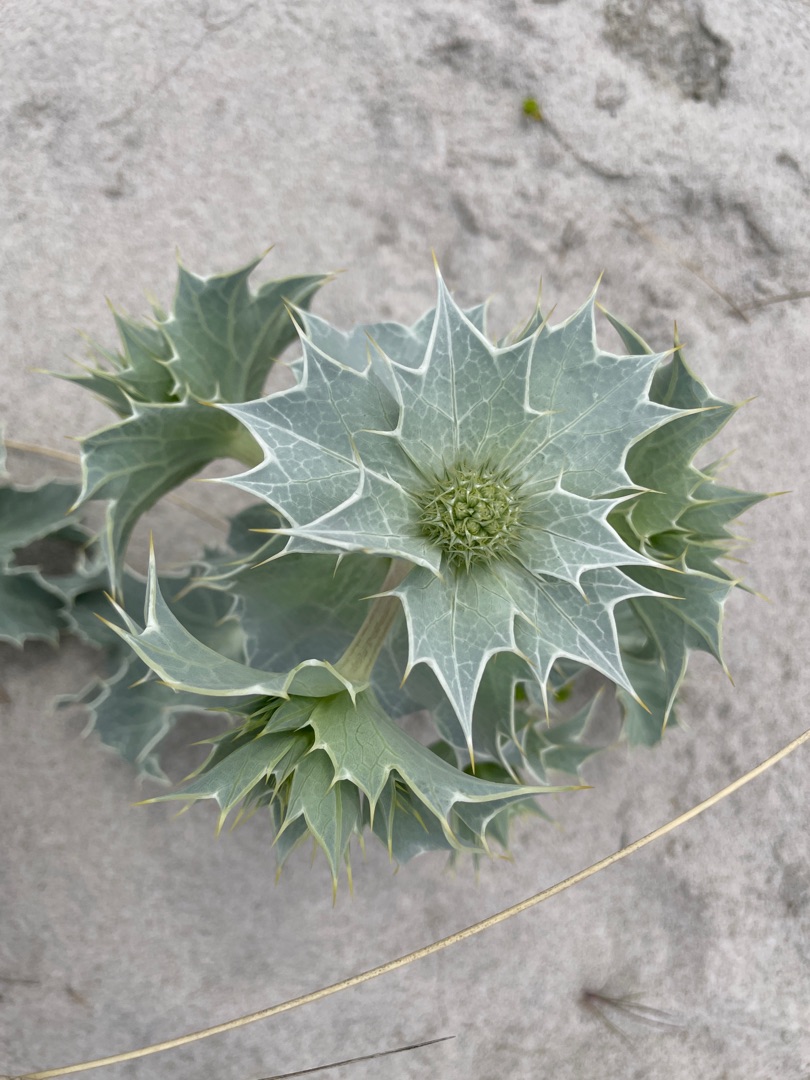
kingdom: Plantae
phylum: Tracheophyta
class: Magnoliopsida
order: Apiales
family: Apiaceae
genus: Eryngium
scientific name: Eryngium maritimum
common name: Strand-mandstro
